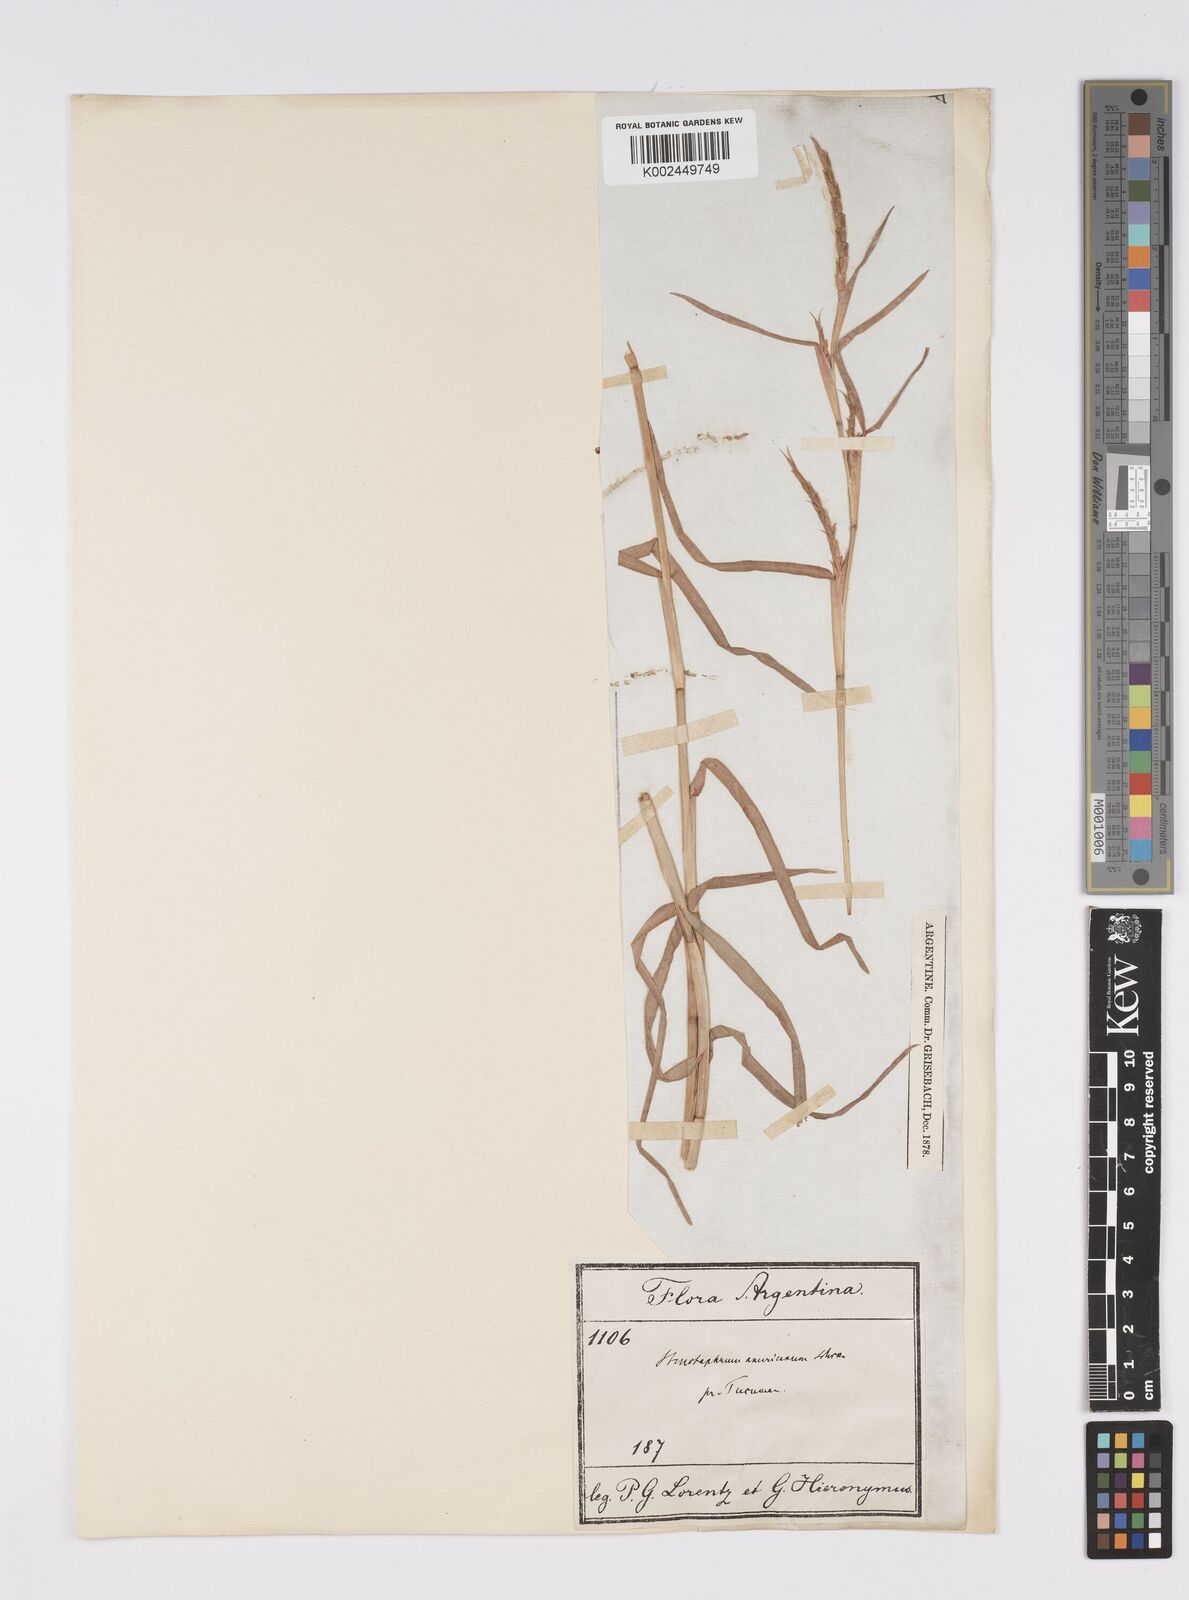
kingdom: Plantae
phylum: Tracheophyta
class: Liliopsida
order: Poales
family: Poaceae
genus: Hemarthria
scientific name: Hemarthria altissima
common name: African jointgrass
